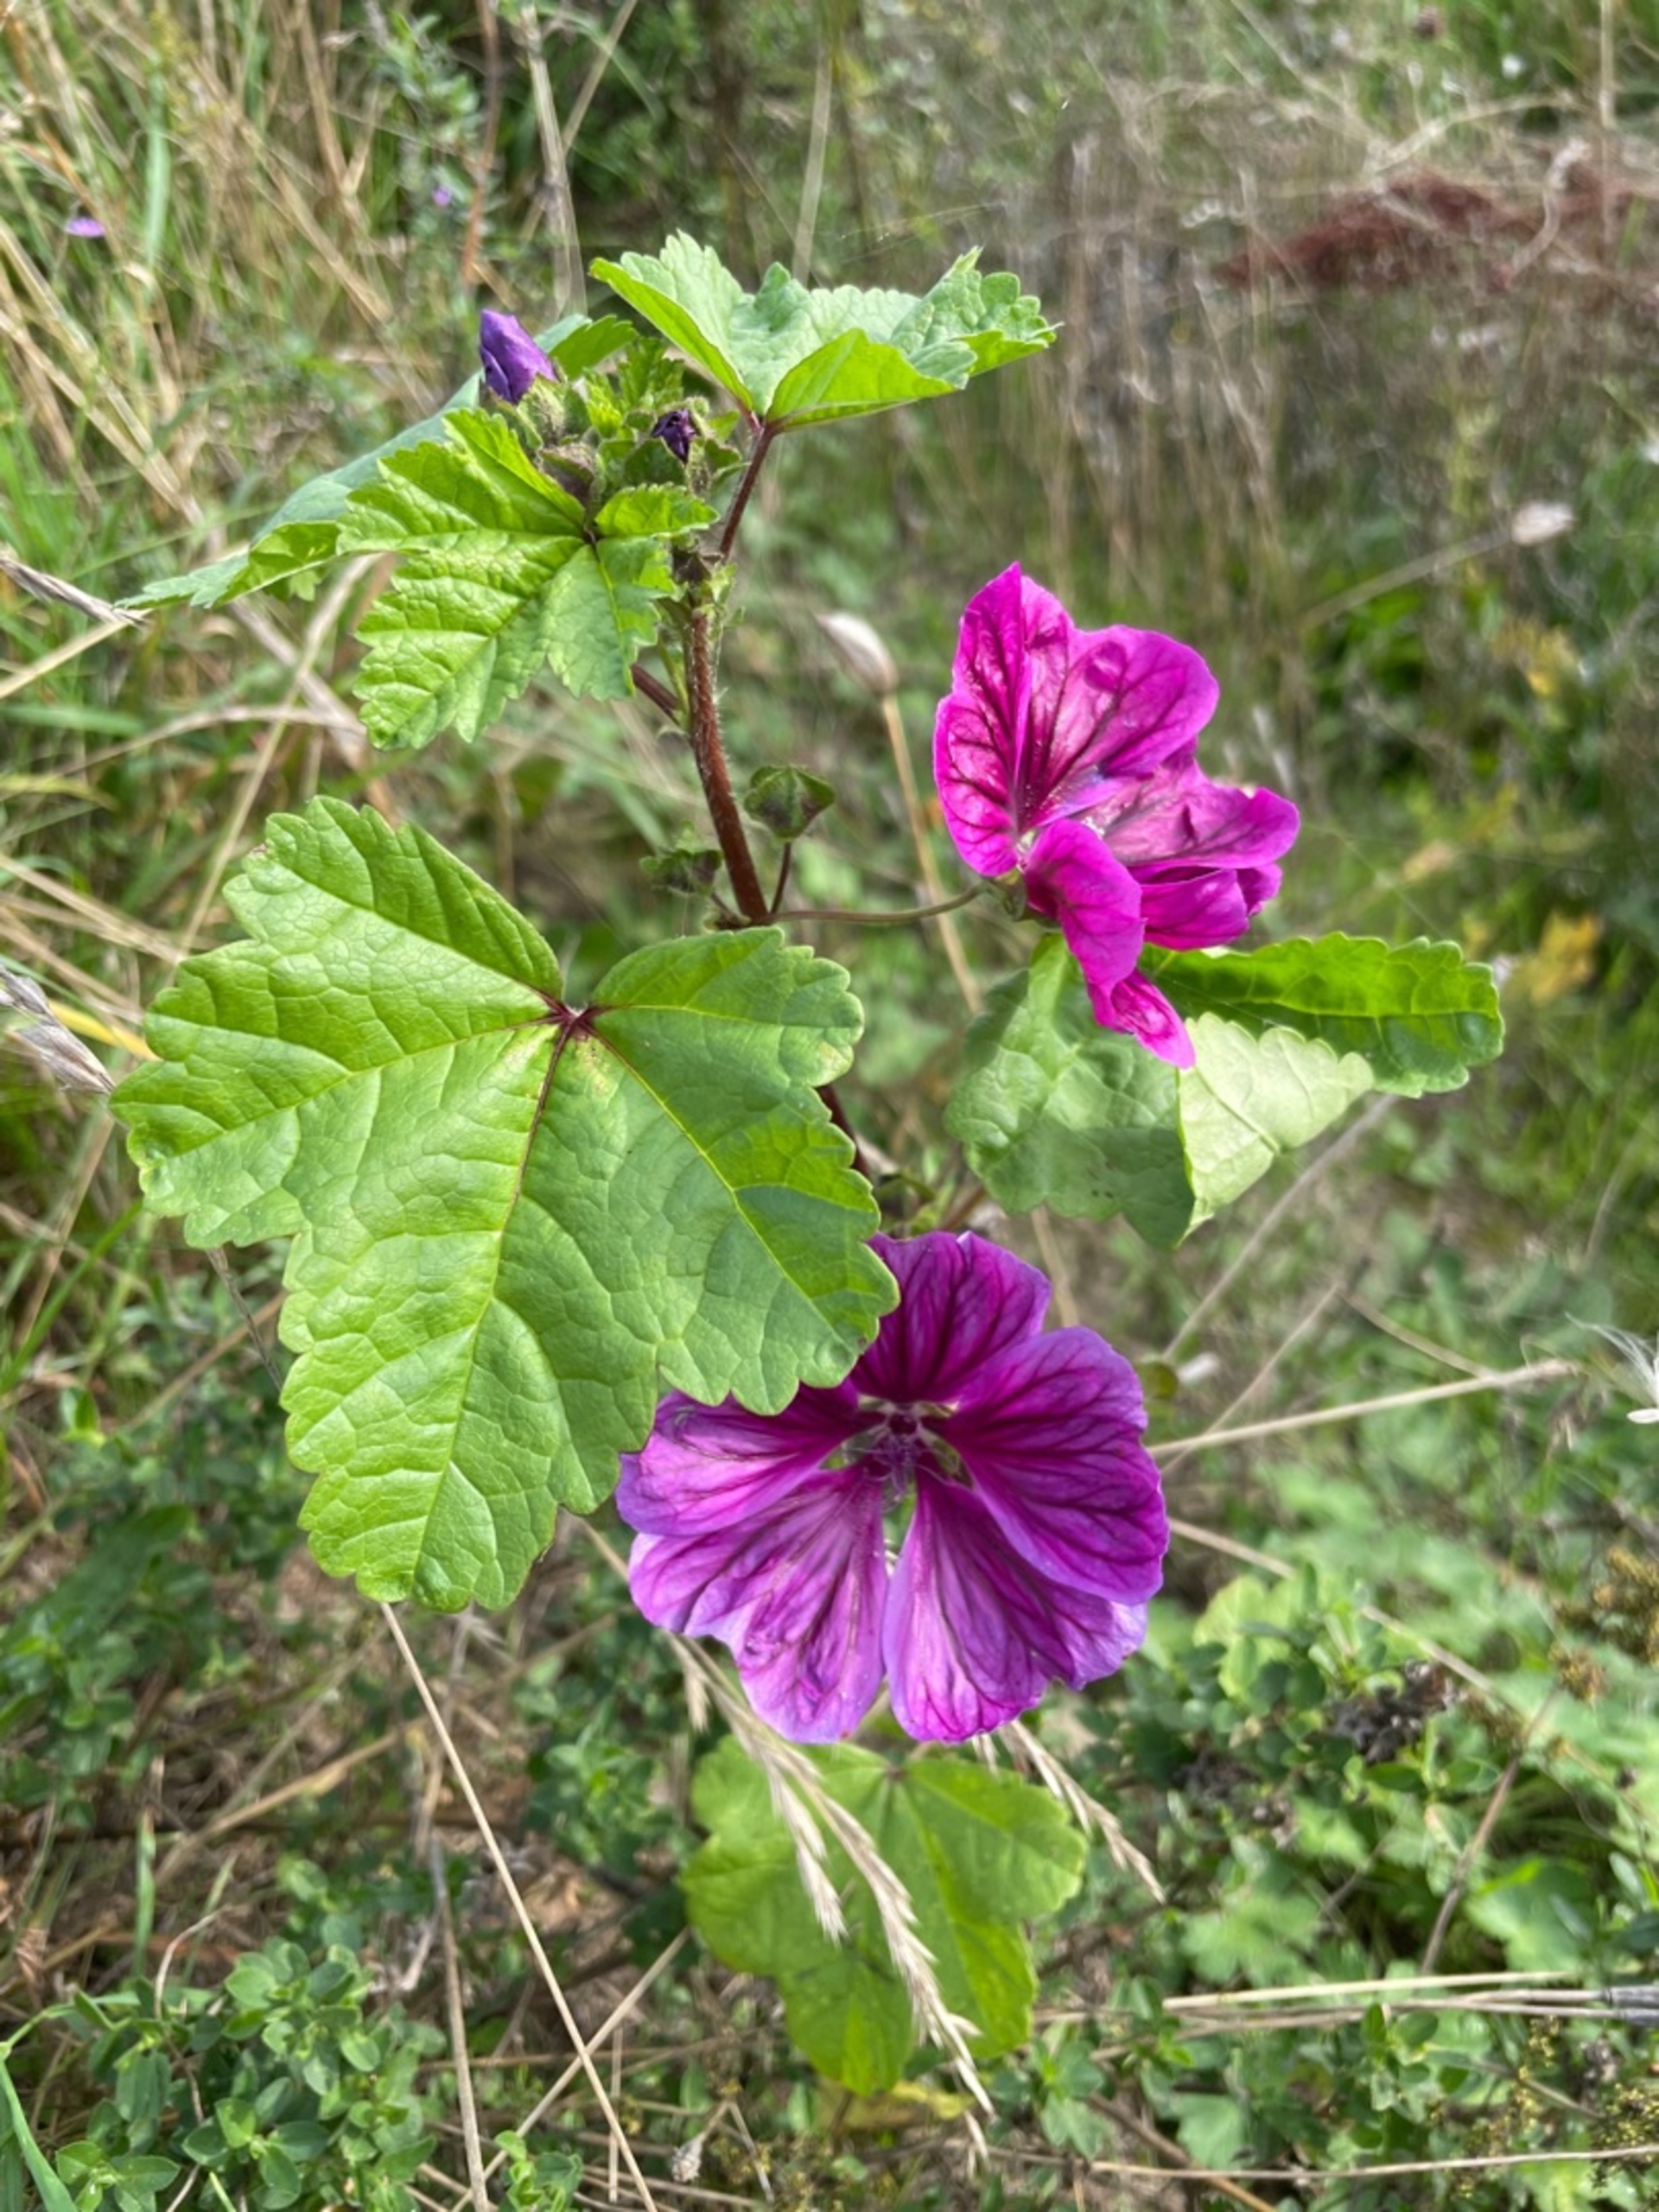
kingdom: Plantae
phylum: Tracheophyta
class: Magnoliopsida
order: Malvales
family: Malvaceae
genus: Malva
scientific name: Malva sylvestris
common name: Stor katost
